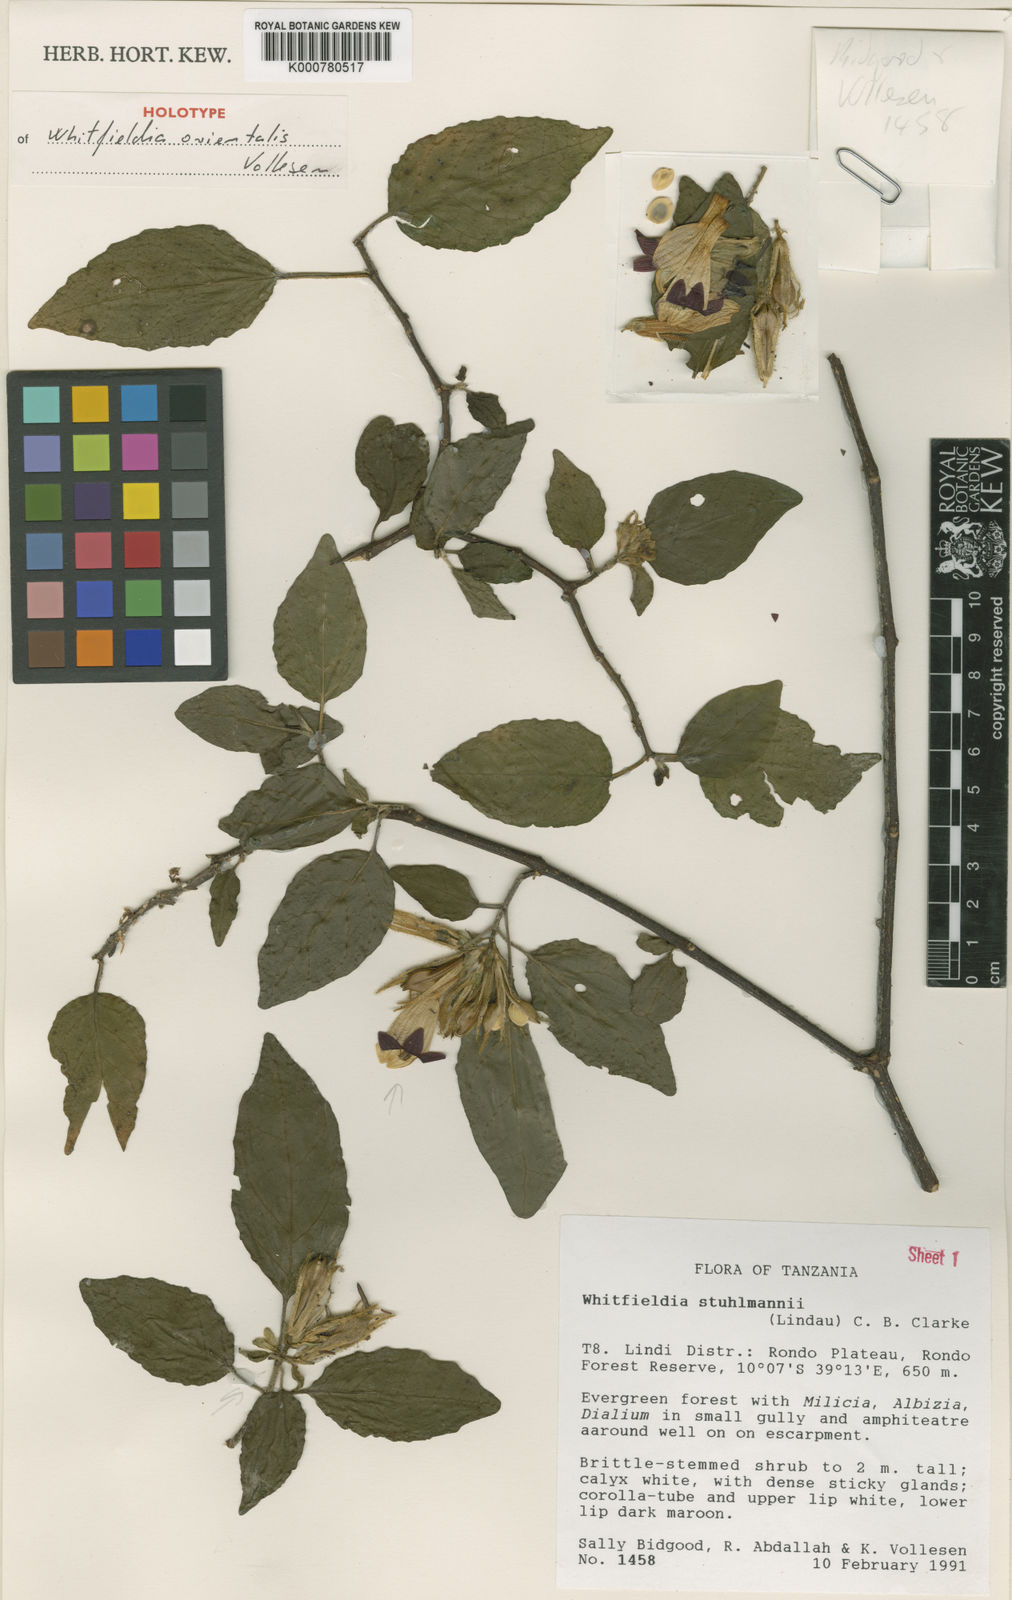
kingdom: Plantae
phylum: Tracheophyta
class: Magnoliopsida
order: Lamiales
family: Acanthaceae
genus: Whitfieldia
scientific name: Whitfieldia orientalis
